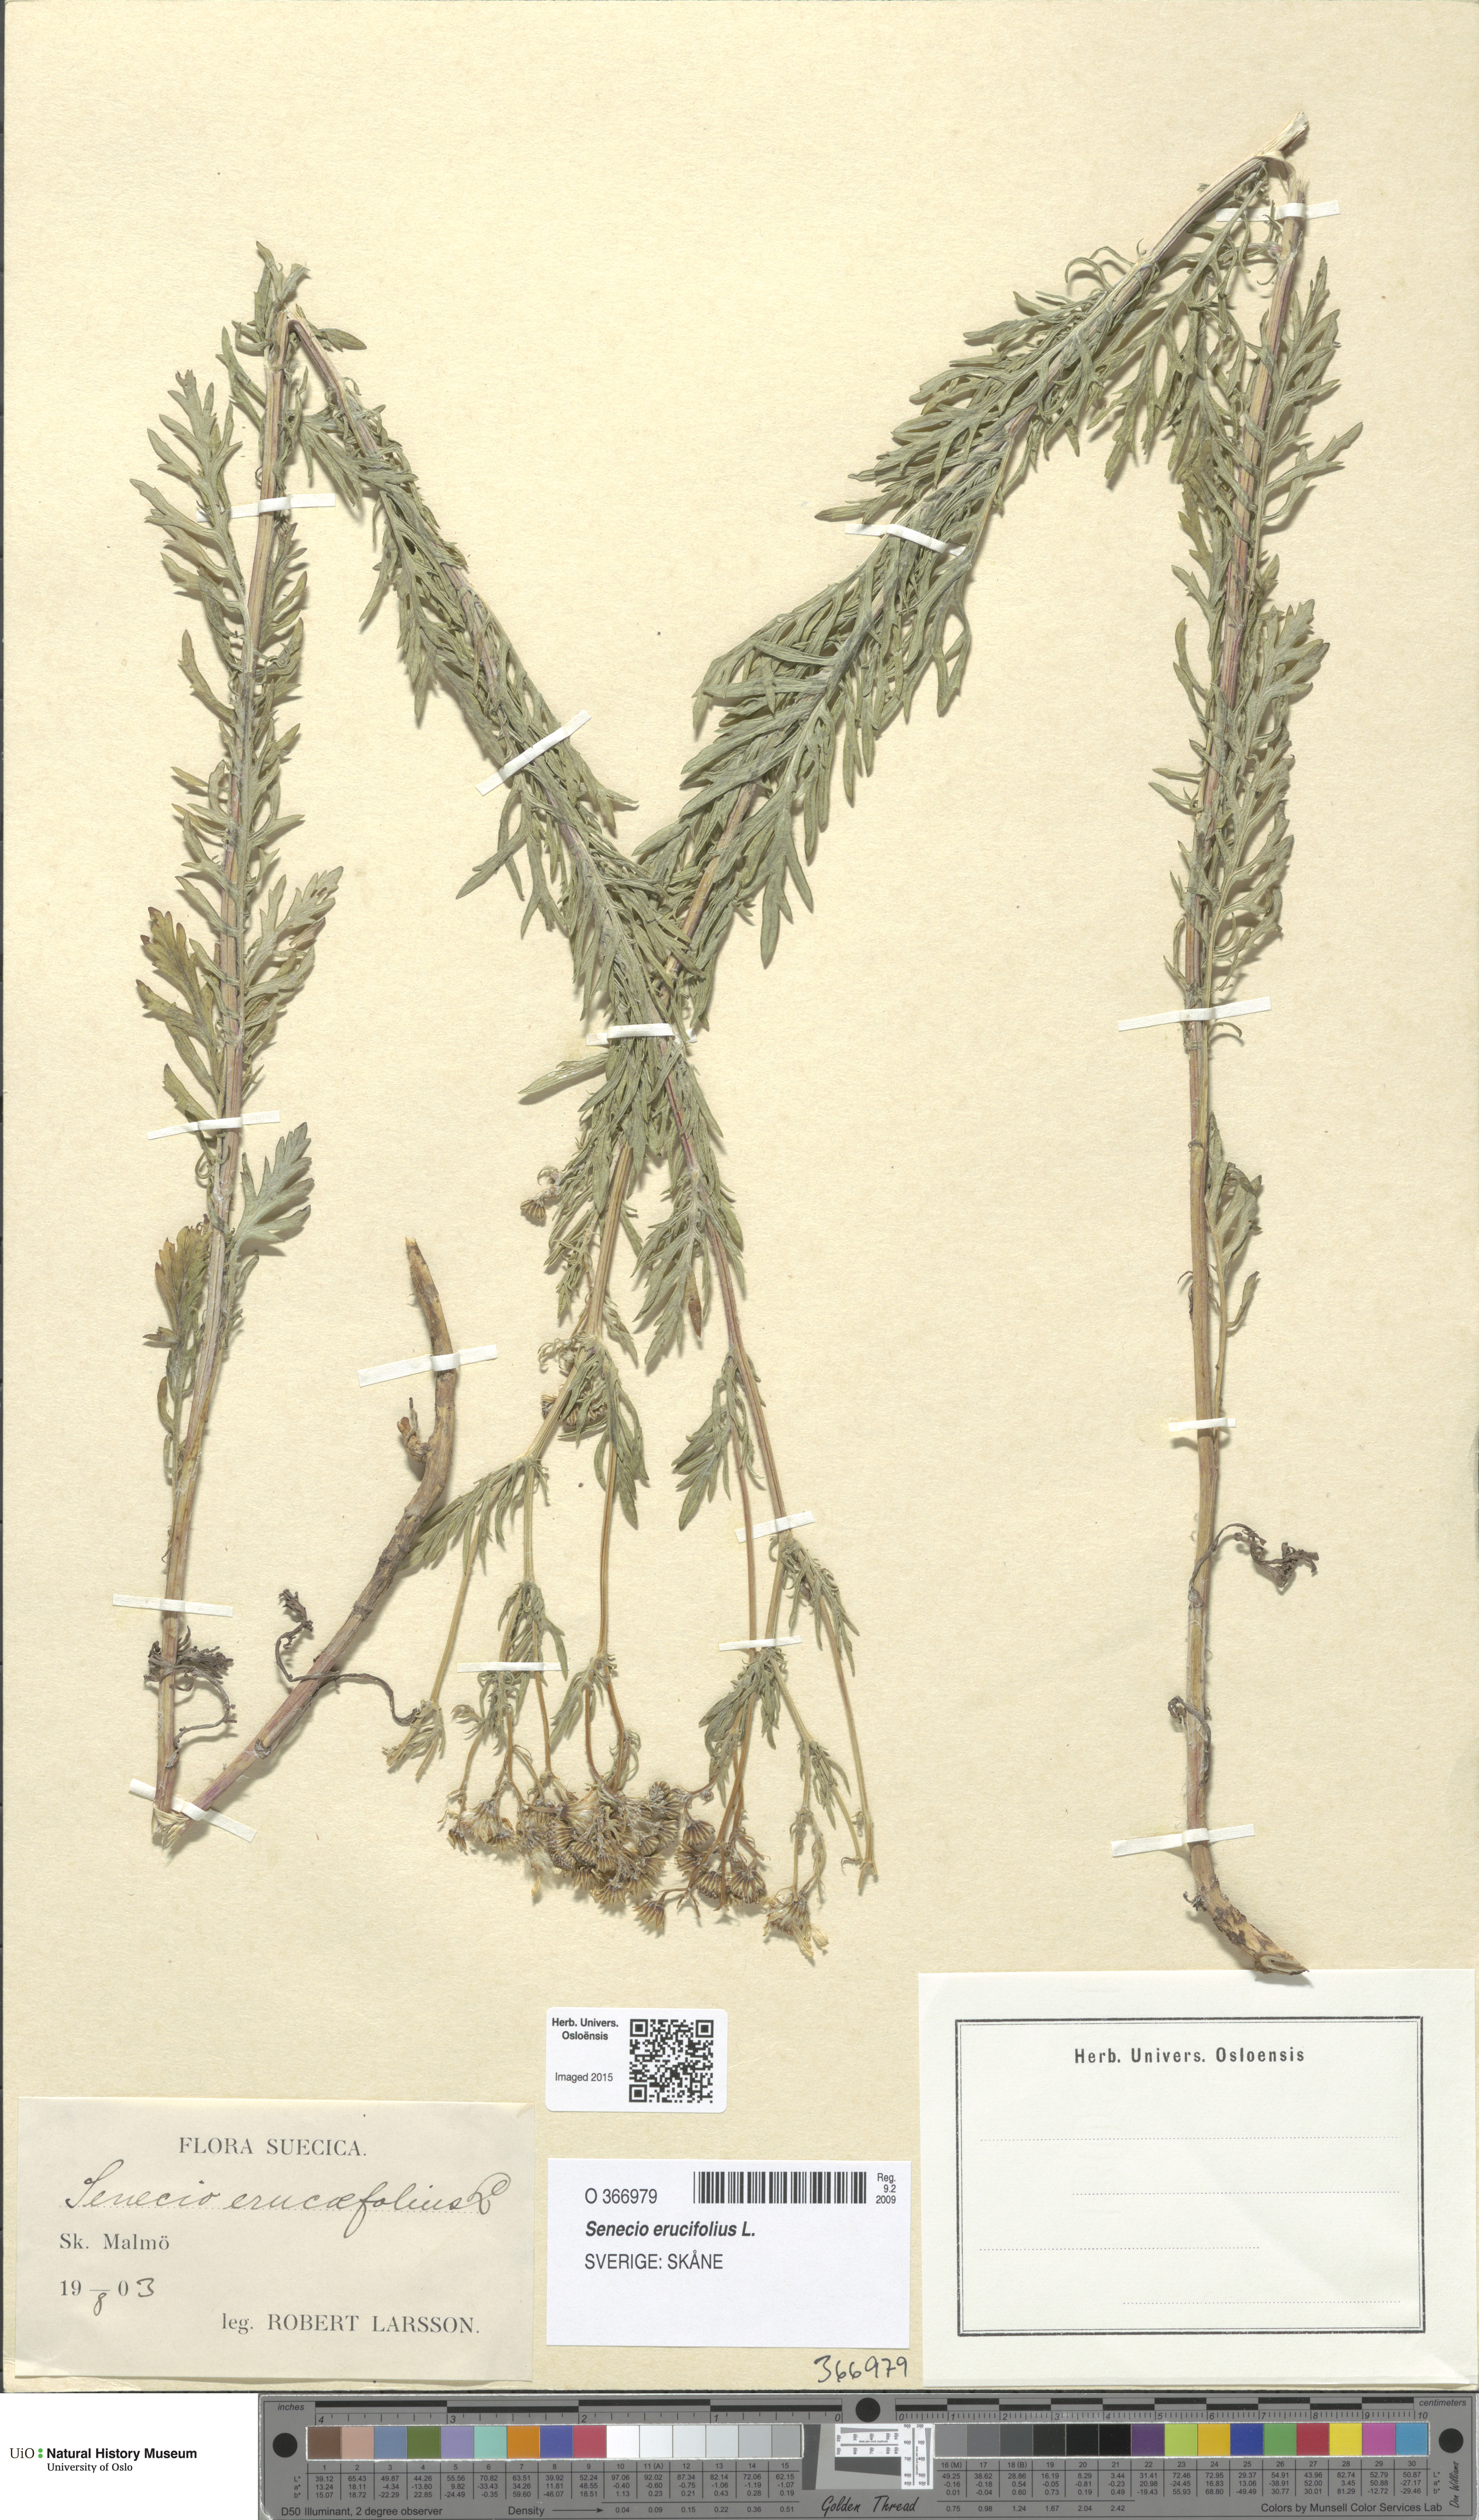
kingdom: Plantae
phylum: Tracheophyta
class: Magnoliopsida
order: Asterales
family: Asteraceae
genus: Jacobaea
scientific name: Jacobaea erucifolia
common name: Hoary ragwort
